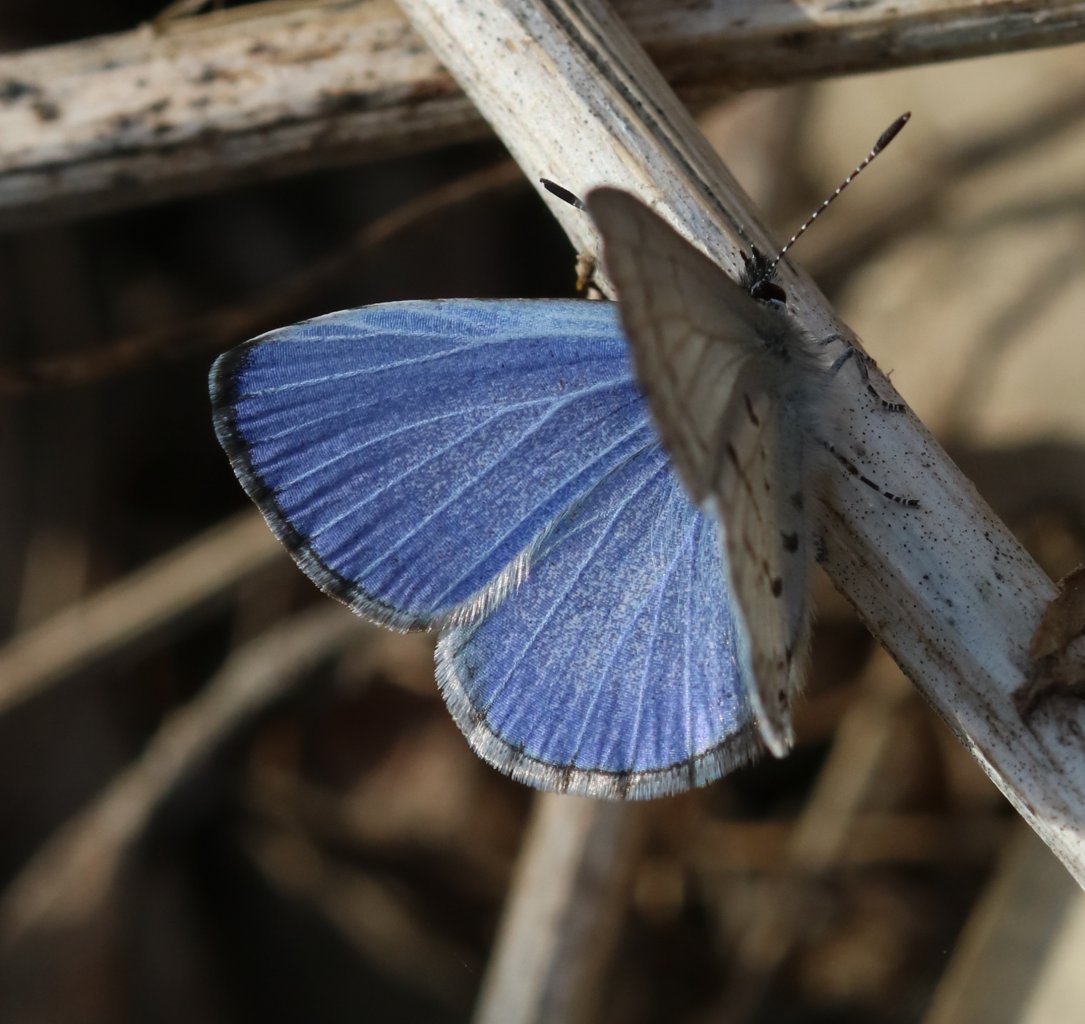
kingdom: Animalia
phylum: Arthropoda
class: Insecta
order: Lepidoptera
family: Lycaenidae
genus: Celastrina
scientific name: Celastrina lucia
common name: Northern Spring Azure
